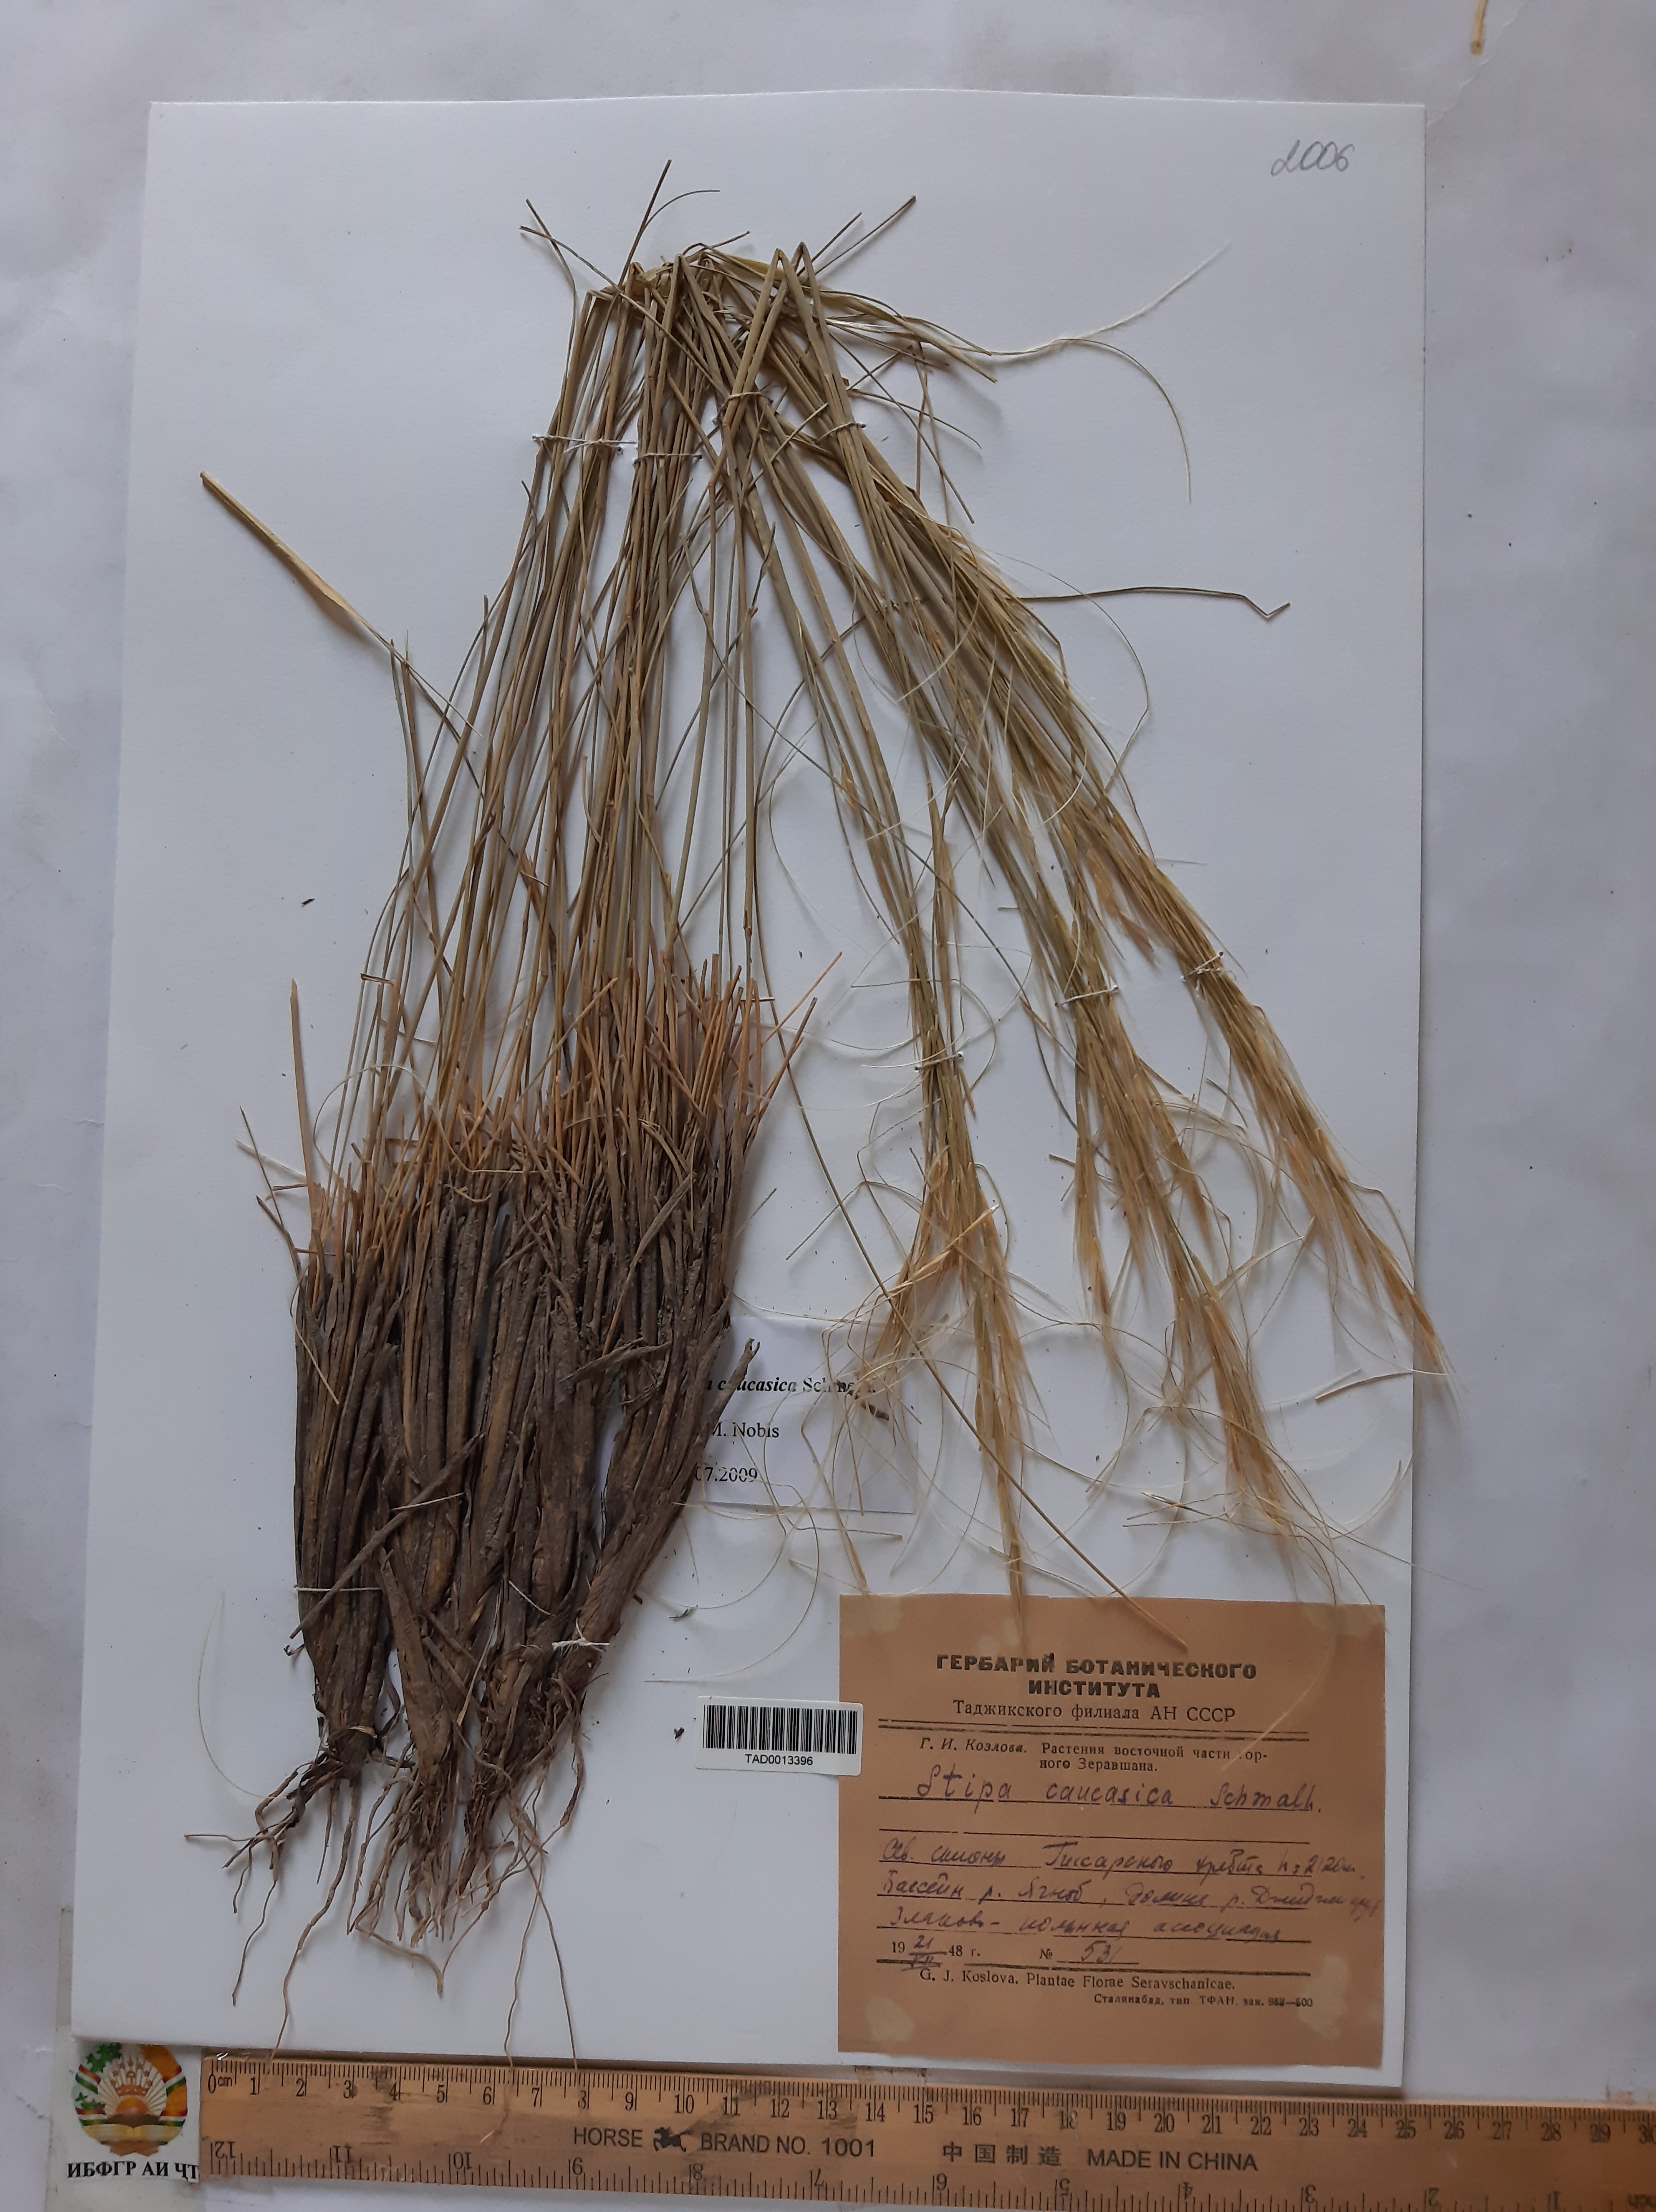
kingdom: Plantae
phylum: Tracheophyta
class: Liliopsida
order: Poales
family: Poaceae
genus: Stipa
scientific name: Stipa caucasica
